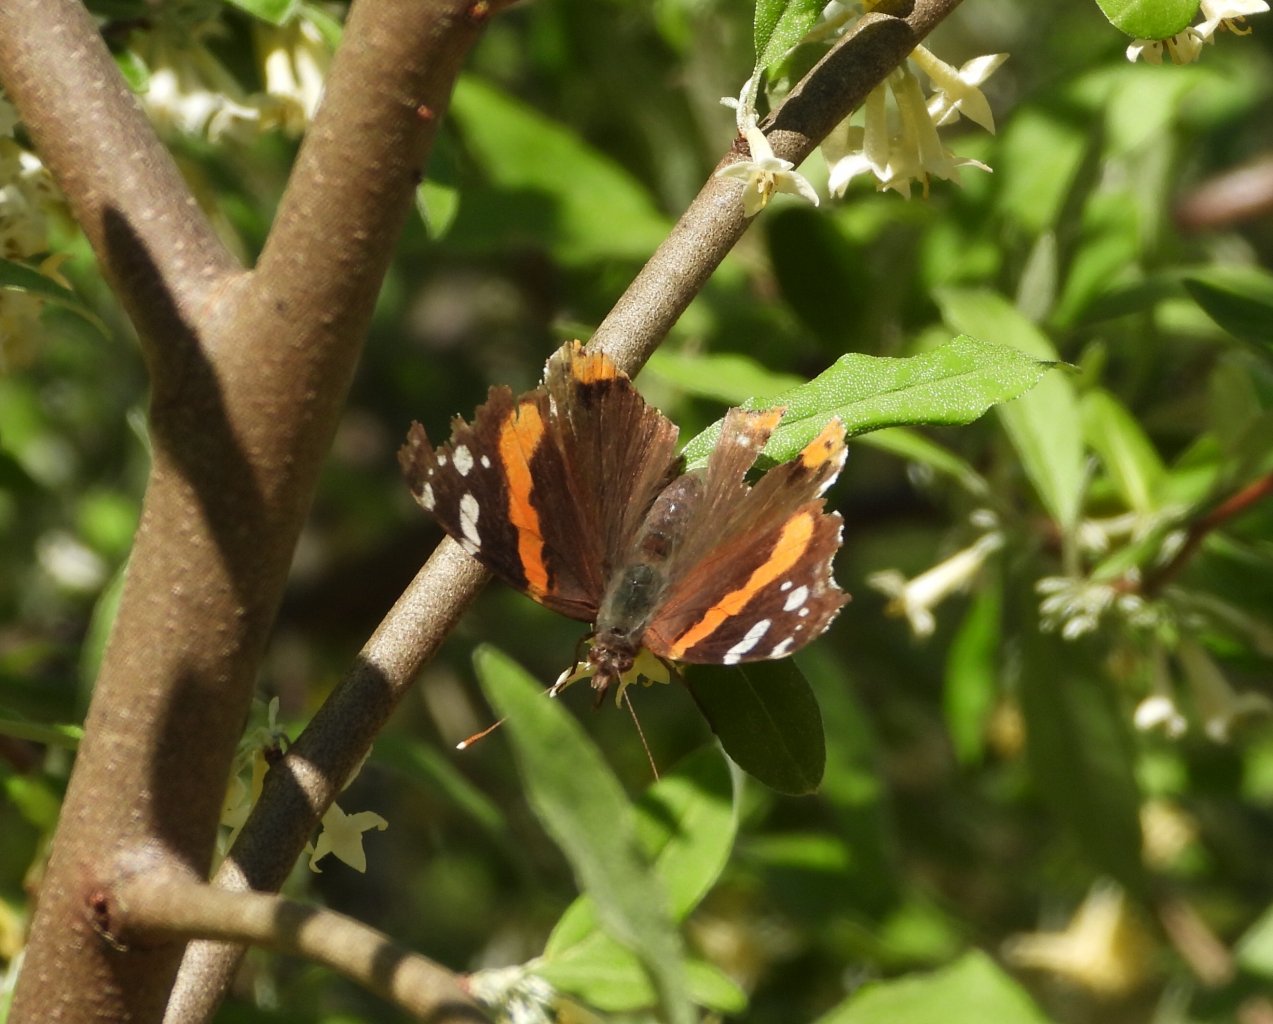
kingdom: Animalia
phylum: Arthropoda
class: Insecta
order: Lepidoptera
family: Nymphalidae
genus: Vanessa
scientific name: Vanessa atalanta
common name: Red Admiral
